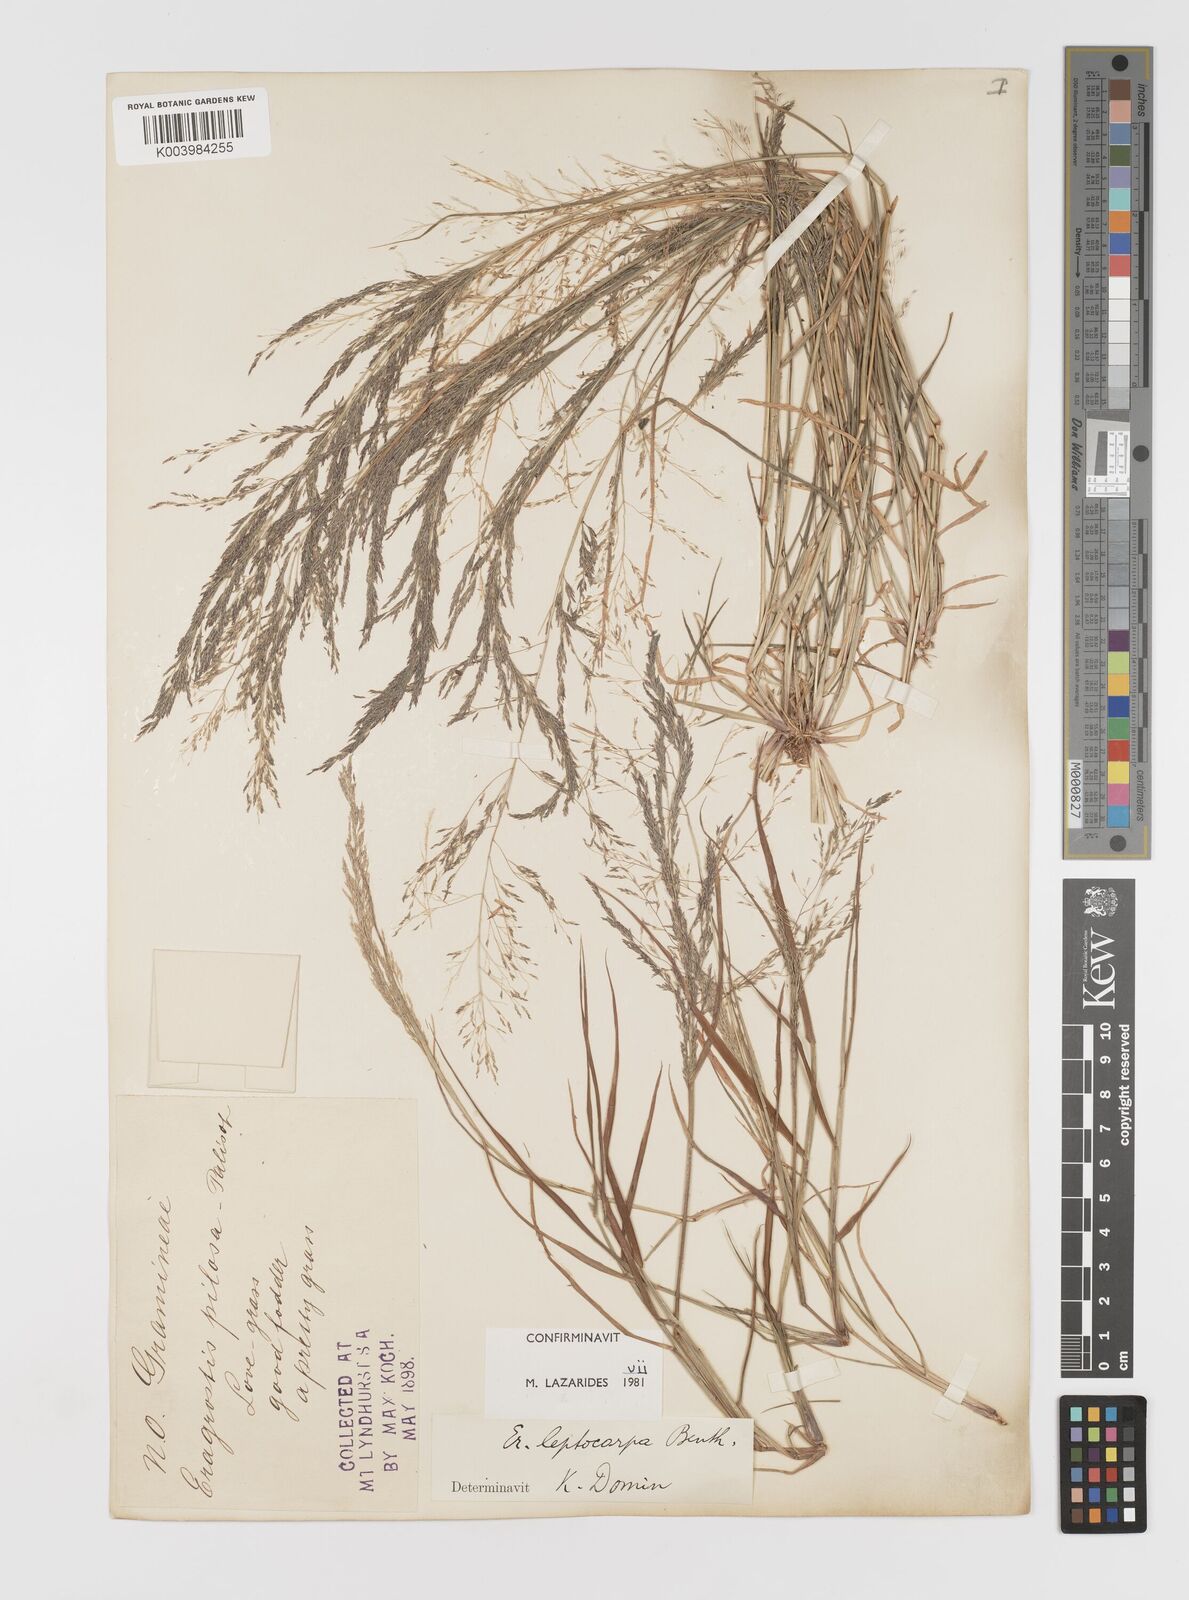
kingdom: Plantae
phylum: Tracheophyta
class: Liliopsida
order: Poales
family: Poaceae
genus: Eragrostis
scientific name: Eragrostis leptocarpa
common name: Drooping love grass
